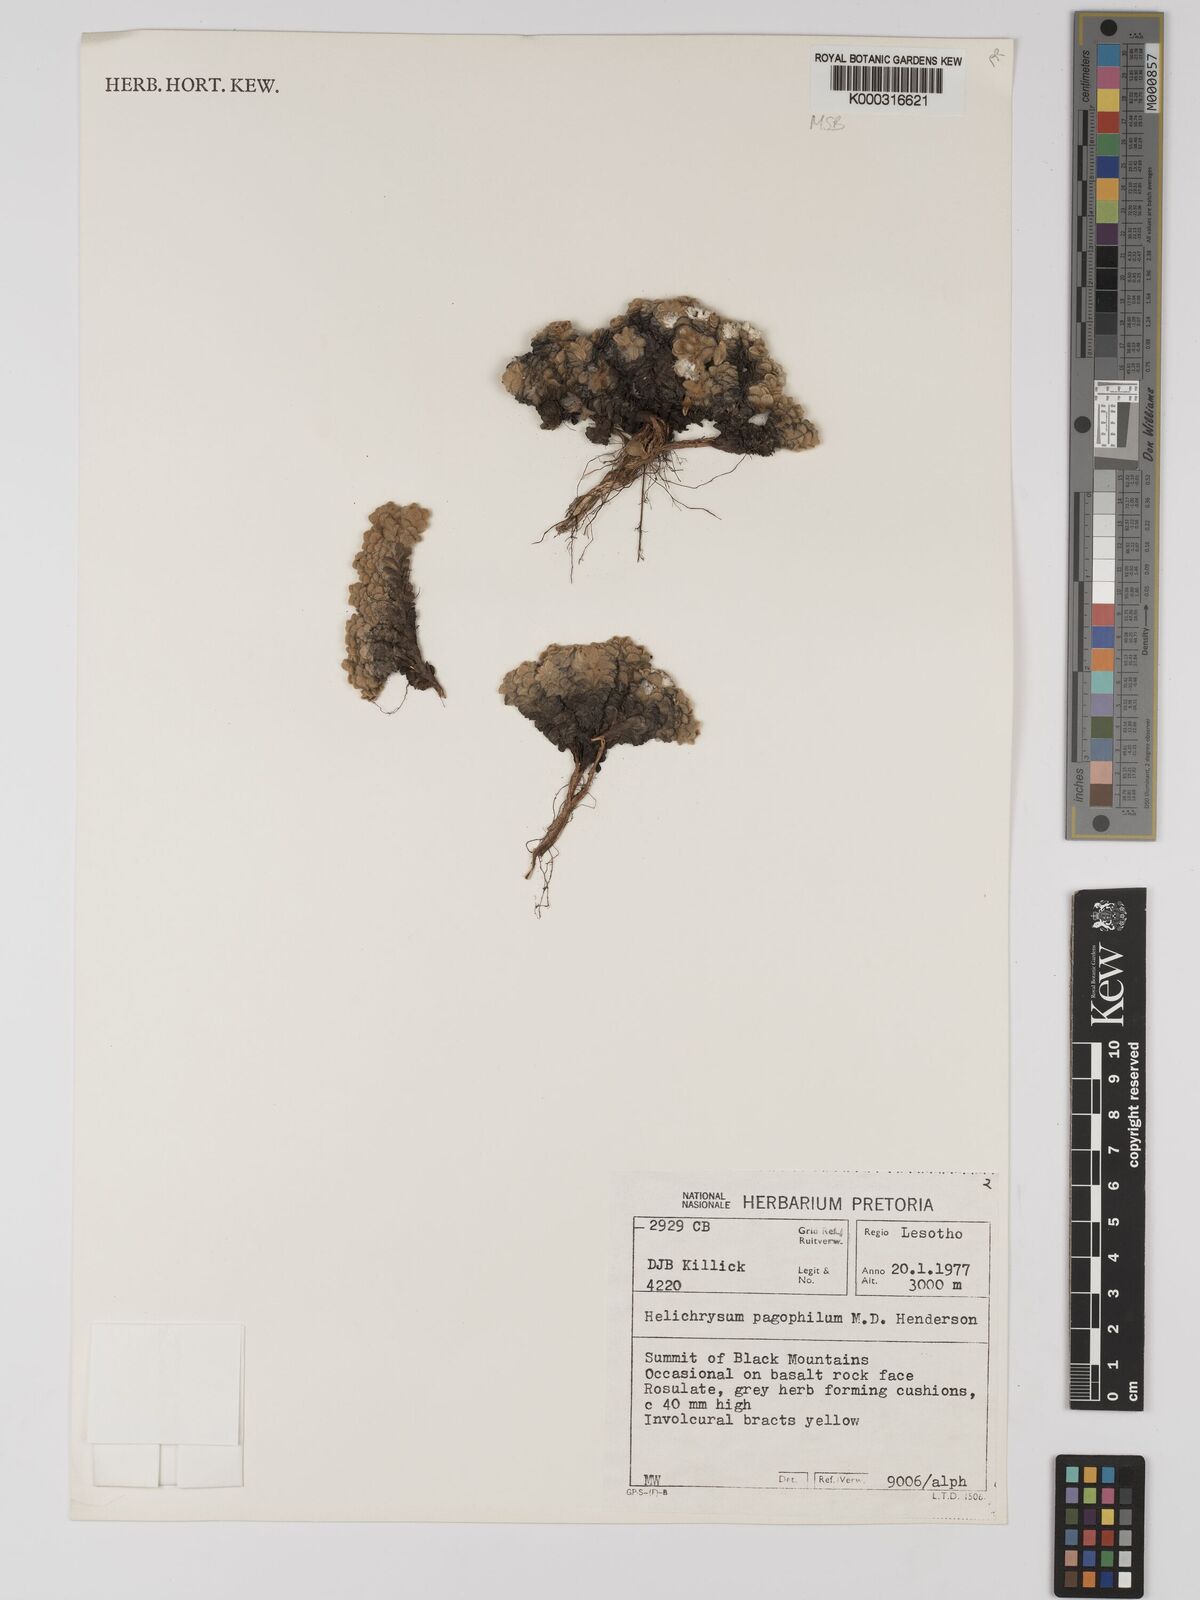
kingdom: Plantae
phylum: Tracheophyta
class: Magnoliopsida
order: Asterales
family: Asteraceae
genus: Helichrysum
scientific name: Helichrysum pagophilum
